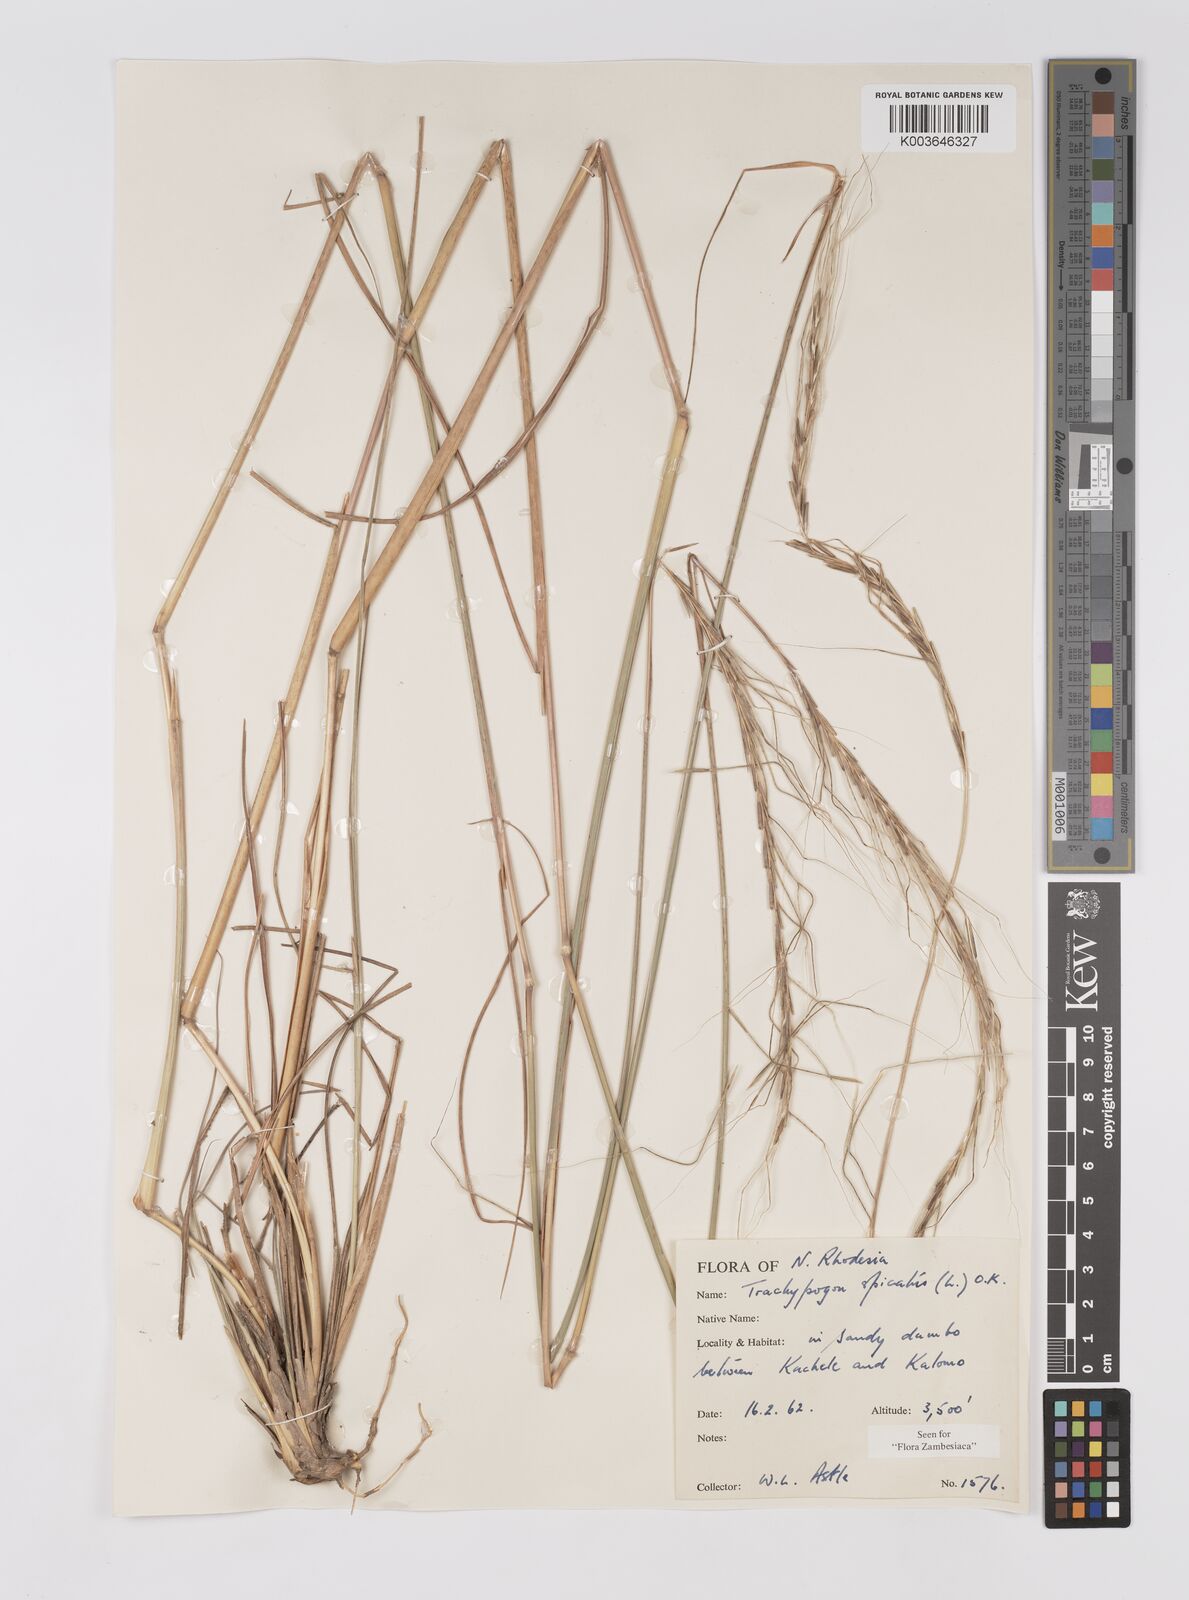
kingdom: Plantae
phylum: Tracheophyta
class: Liliopsida
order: Poales
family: Poaceae
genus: Trachypogon
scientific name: Trachypogon spicatus
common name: Crinkle-awn
